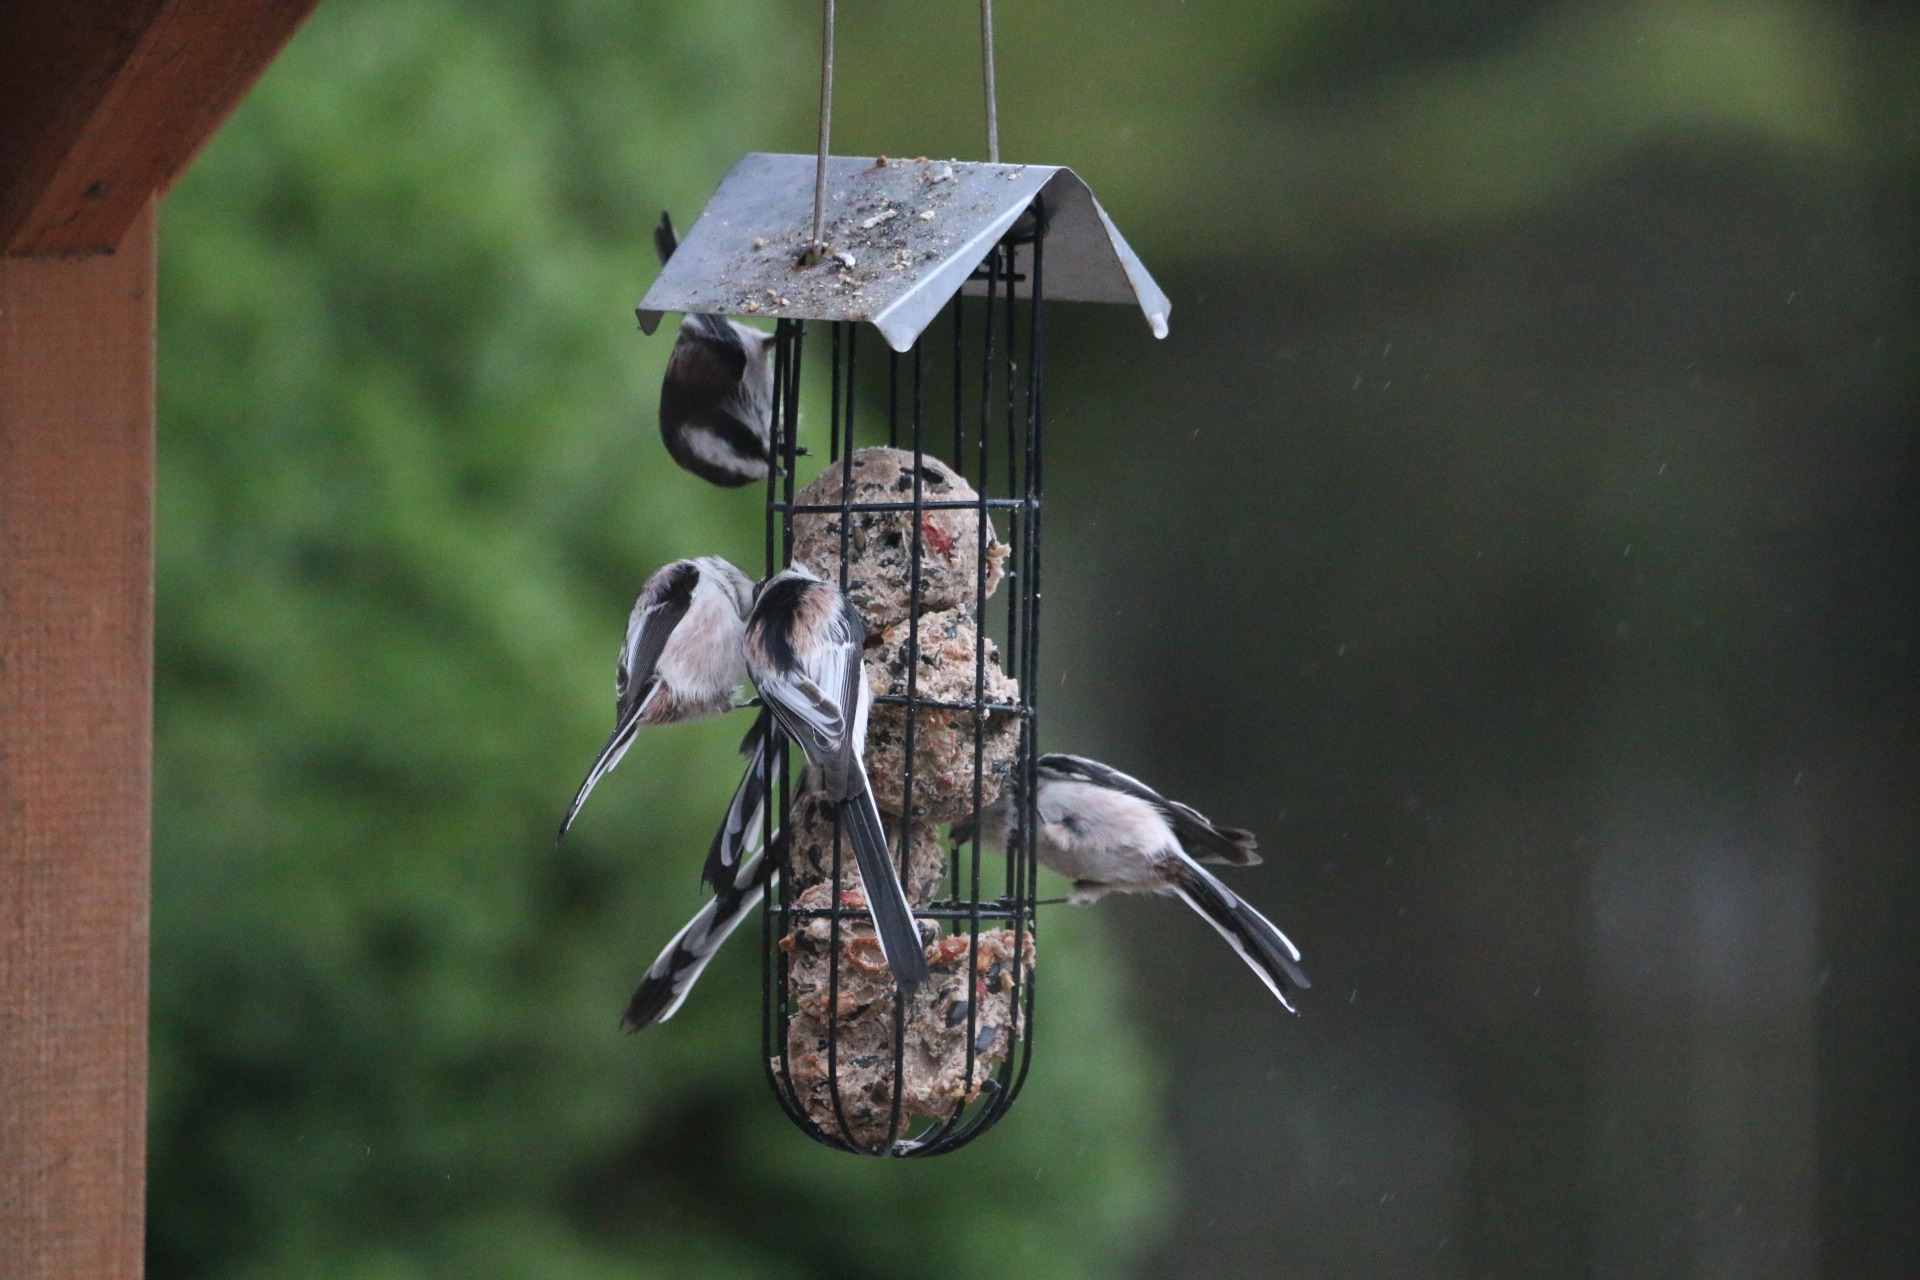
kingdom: Animalia
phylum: Chordata
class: Aves
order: Passeriformes
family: Aegithalidae
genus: Aegithalos
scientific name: Aegithalos caudatus
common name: Halemejse
